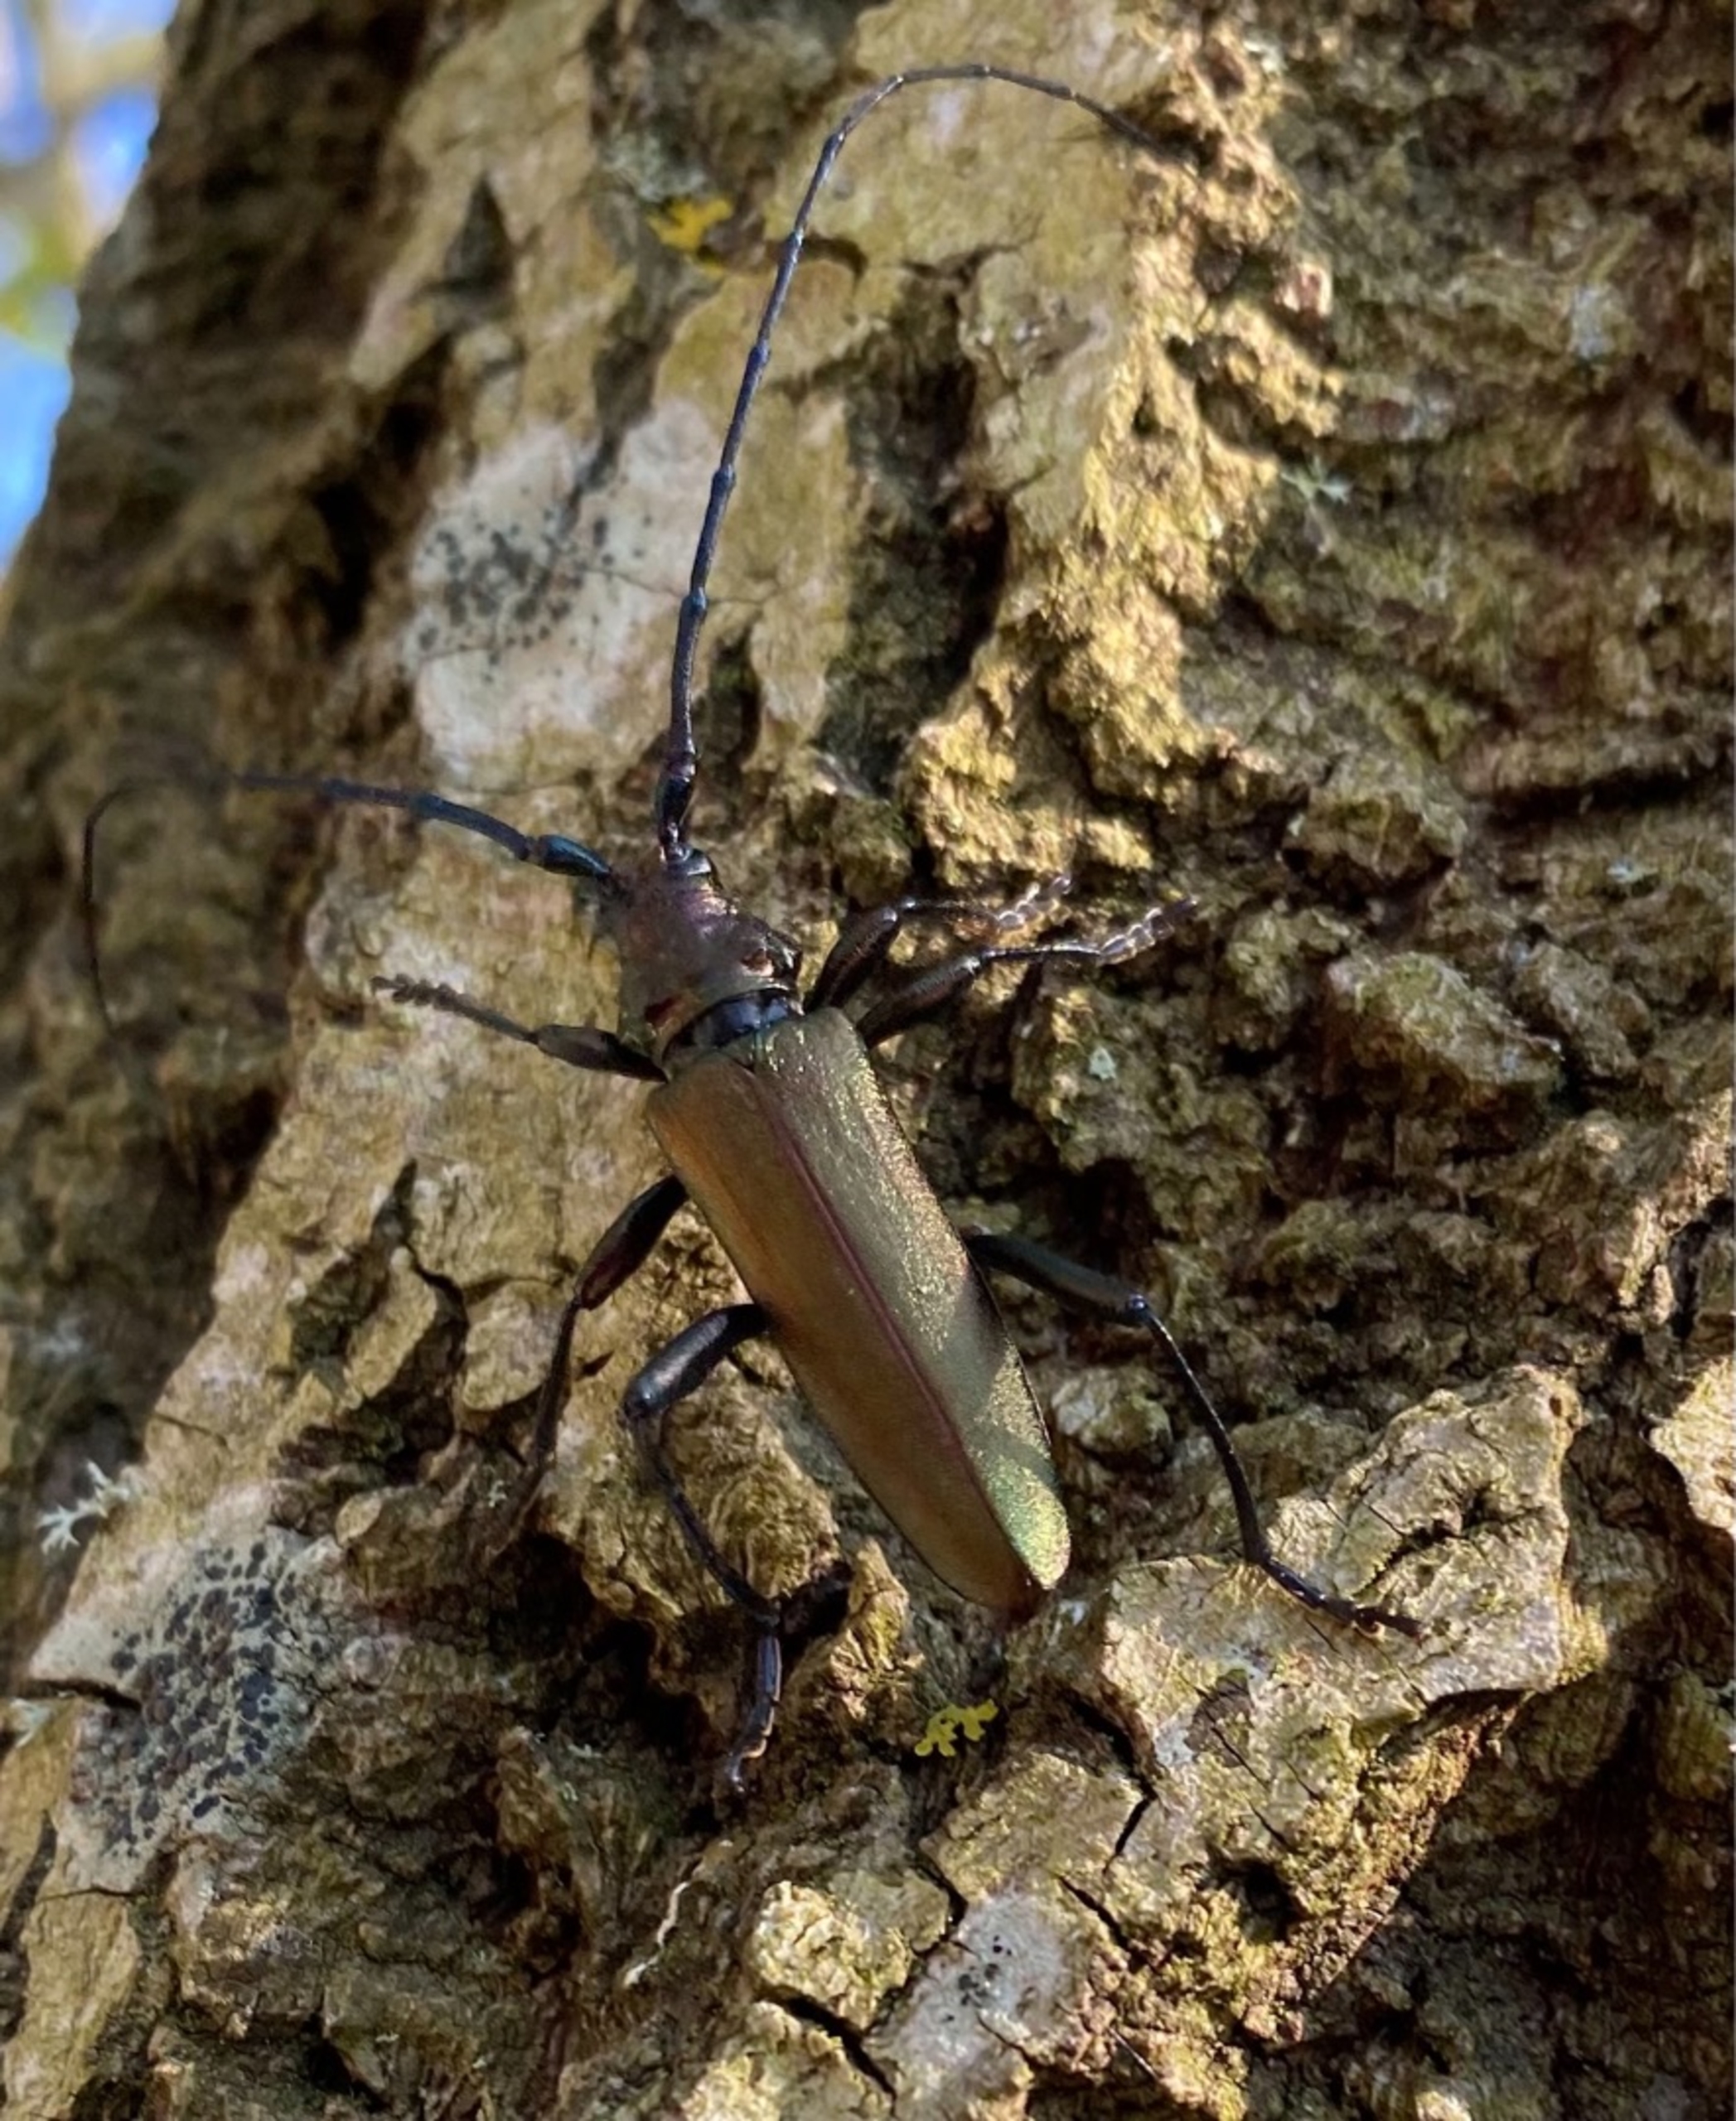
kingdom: Animalia
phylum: Arthropoda
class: Insecta
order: Coleoptera
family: Cerambycidae
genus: Aromia
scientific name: Aromia moschata
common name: Moskusbuk
